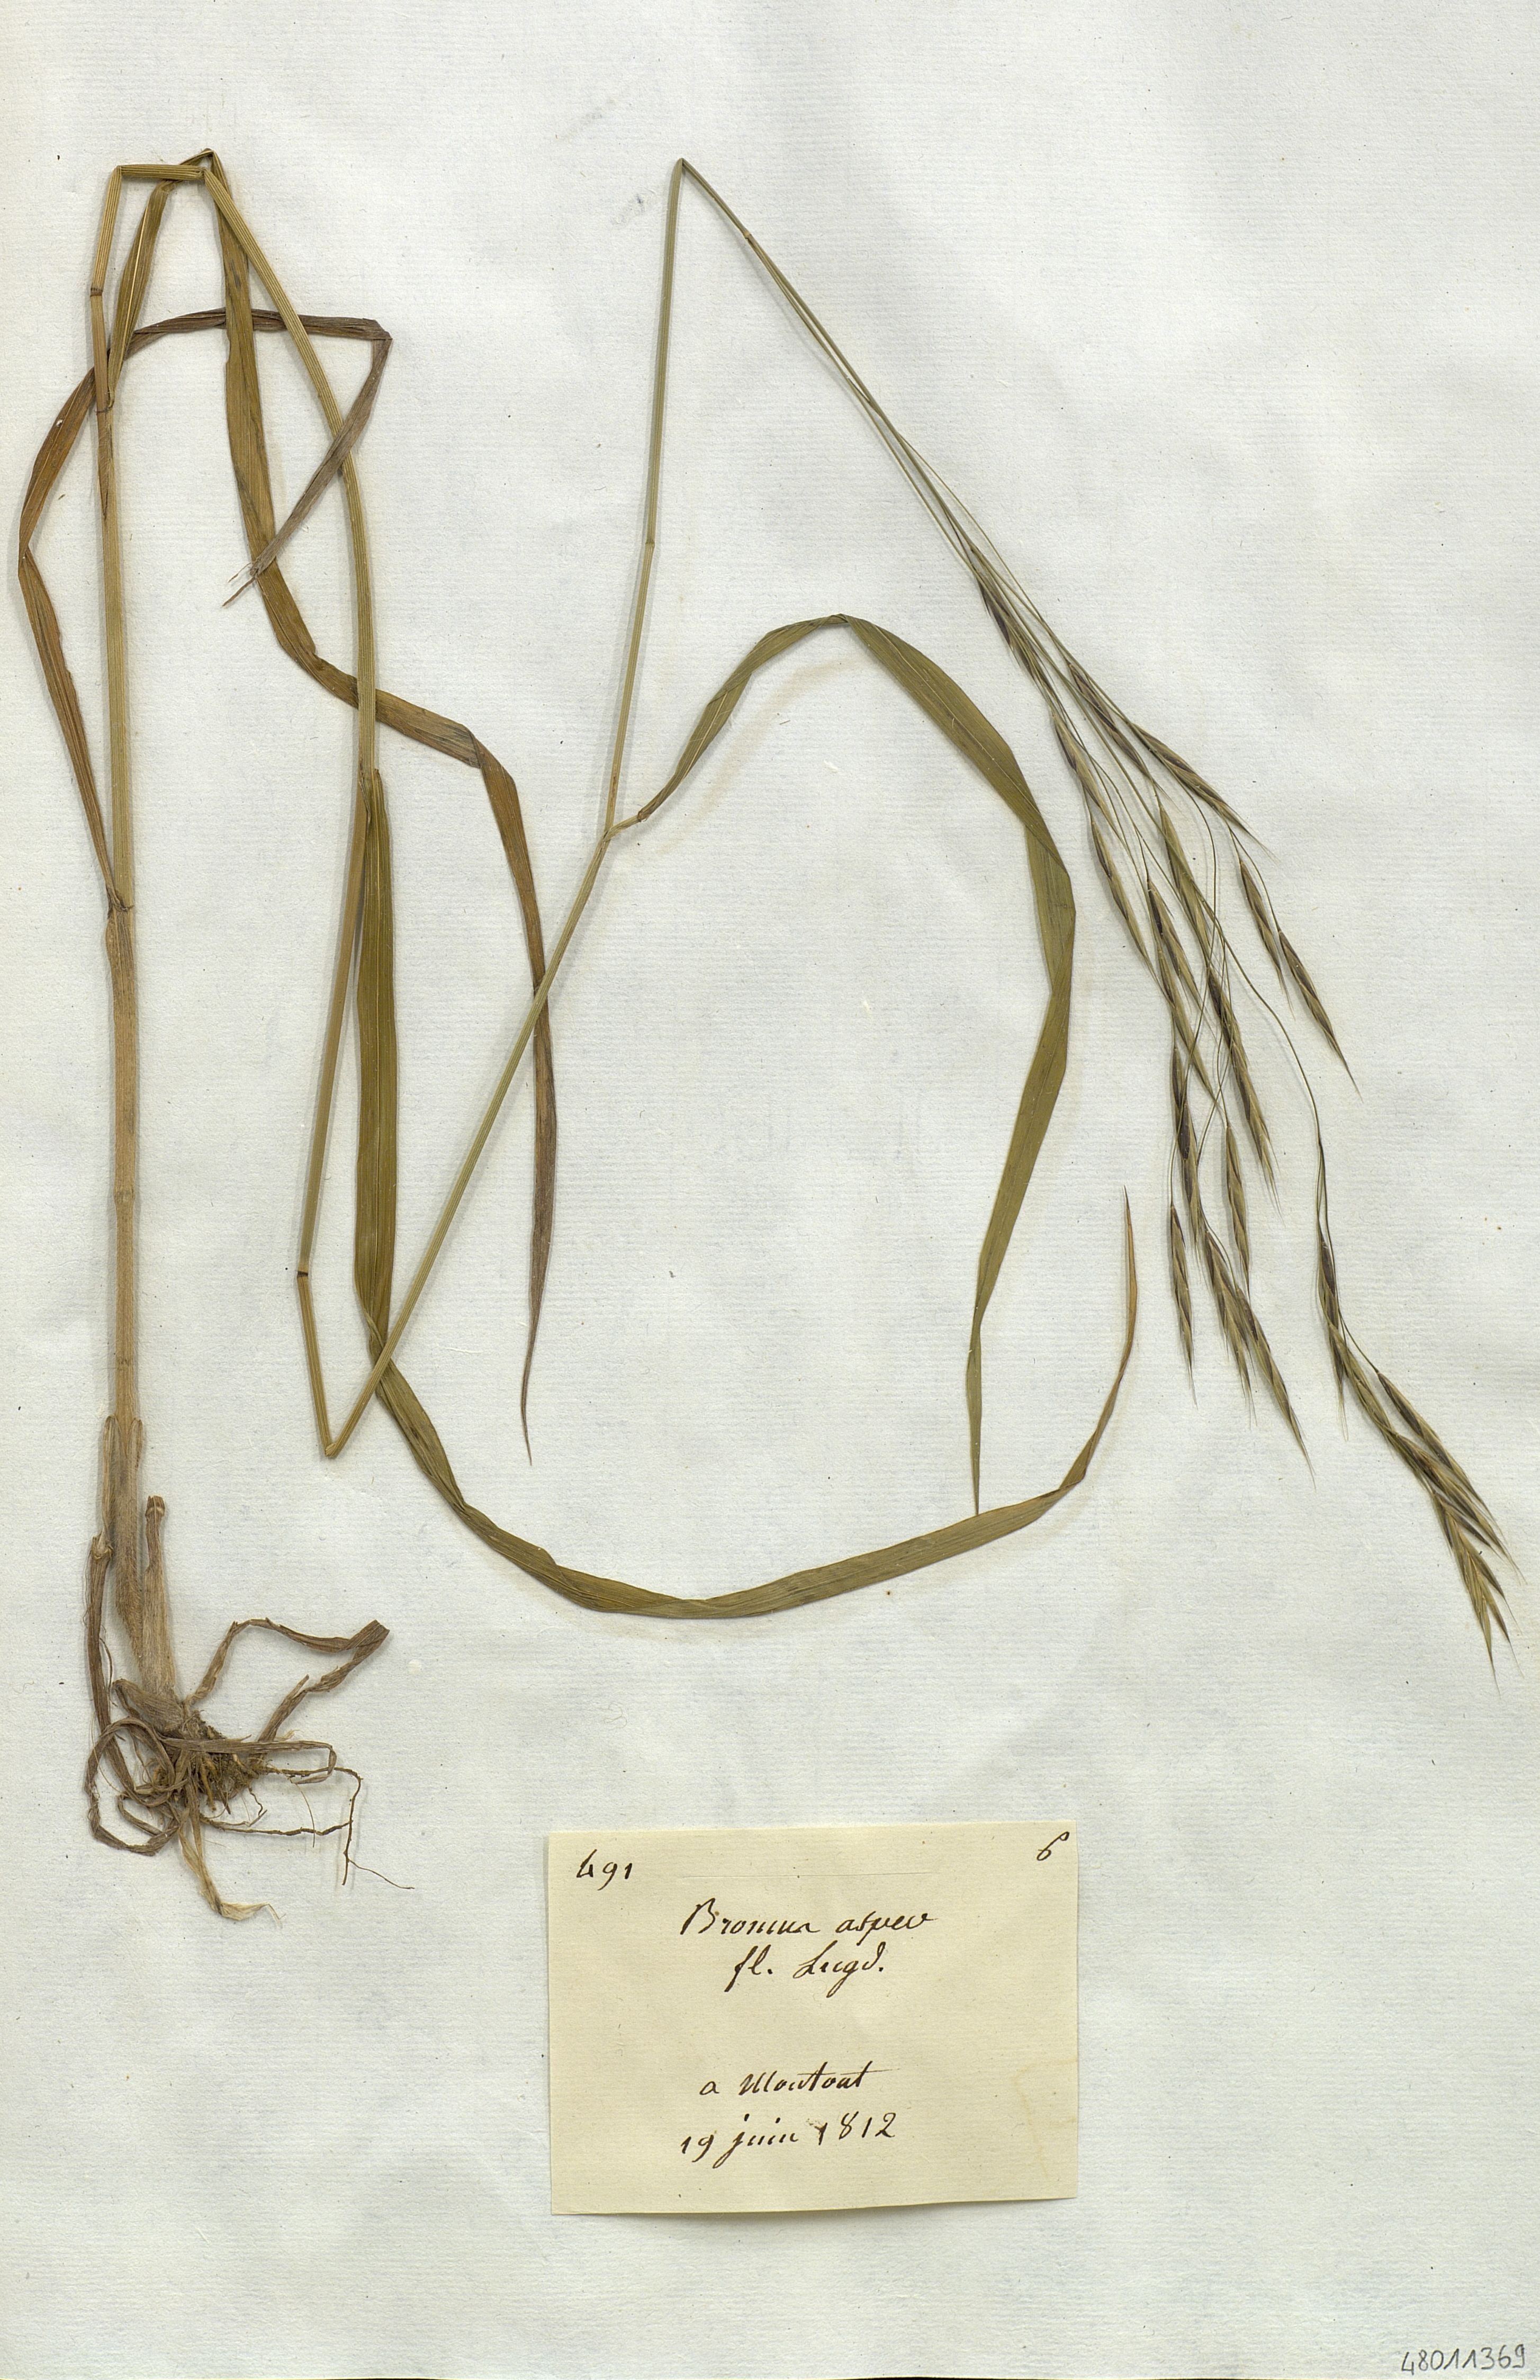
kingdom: Plantae
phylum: Tracheophyta
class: Liliopsida
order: Poales
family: Poaceae
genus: Bromus
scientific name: Bromus
